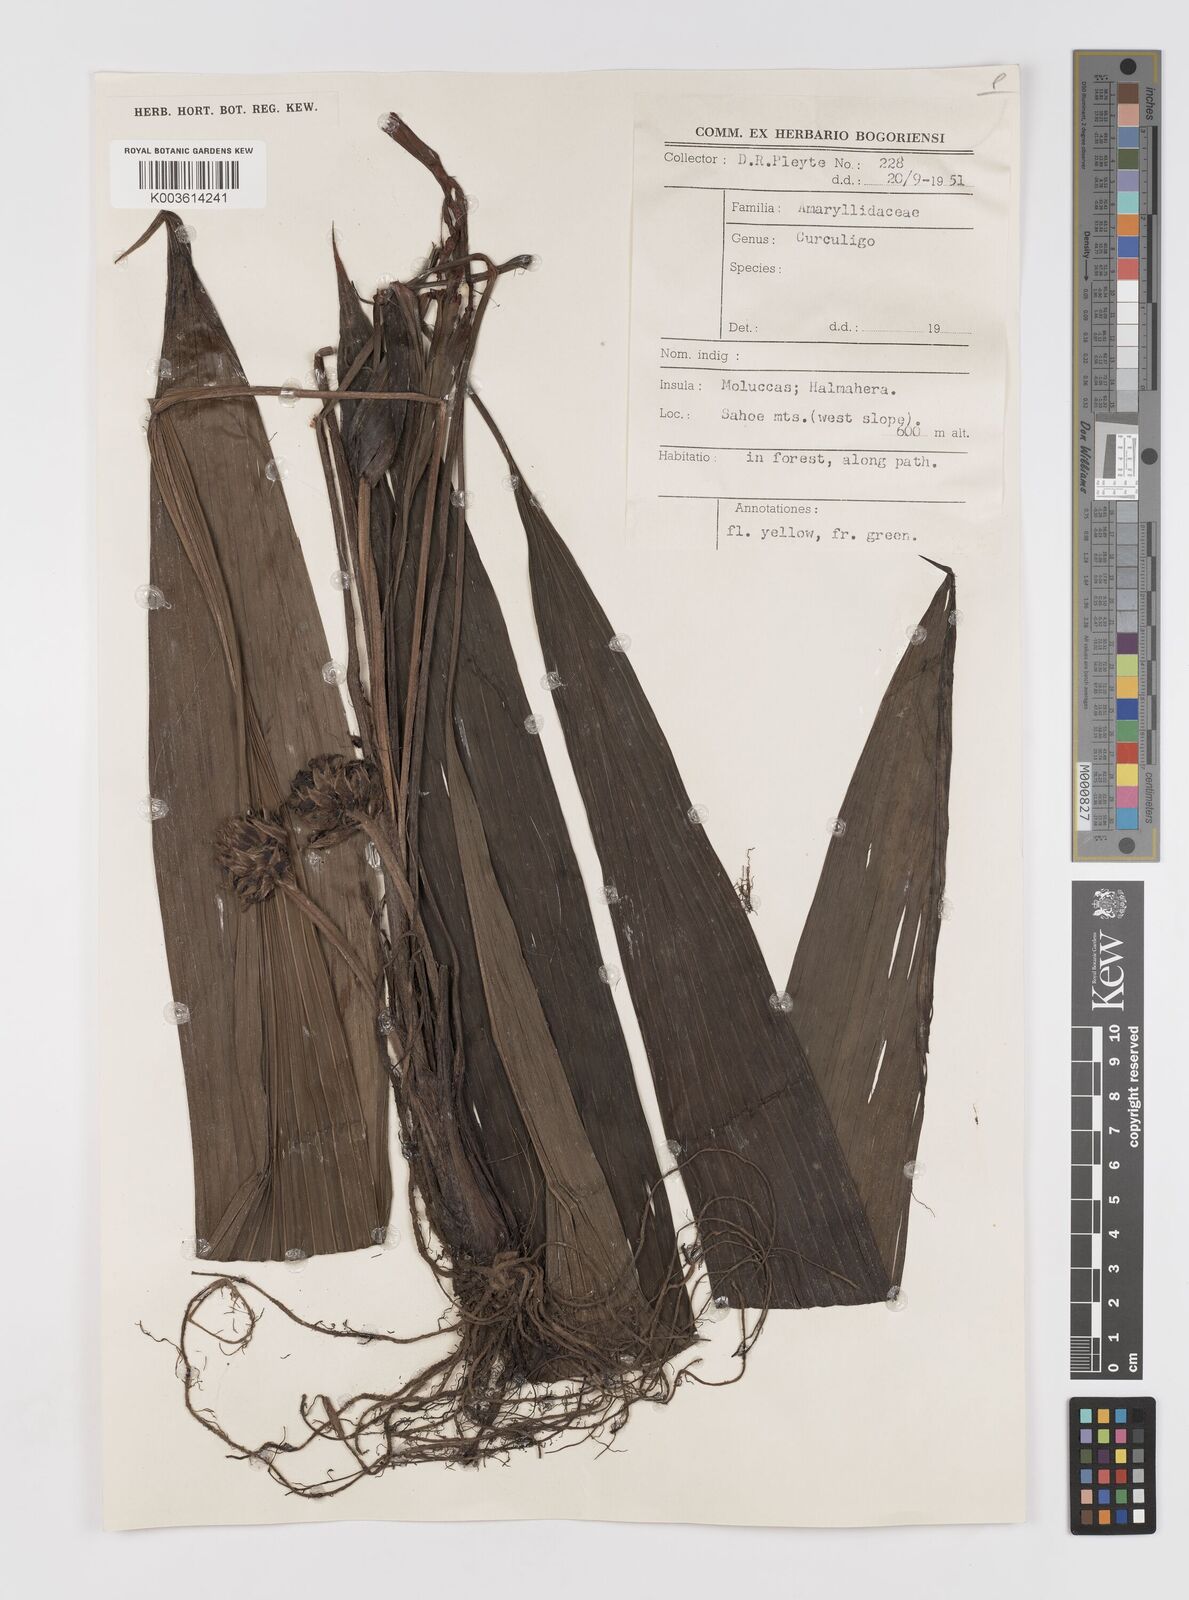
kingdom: Plantae
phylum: Tracheophyta
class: Liliopsida
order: Asparagales
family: Hypoxidaceae
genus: Curculigo
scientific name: Curculigo
